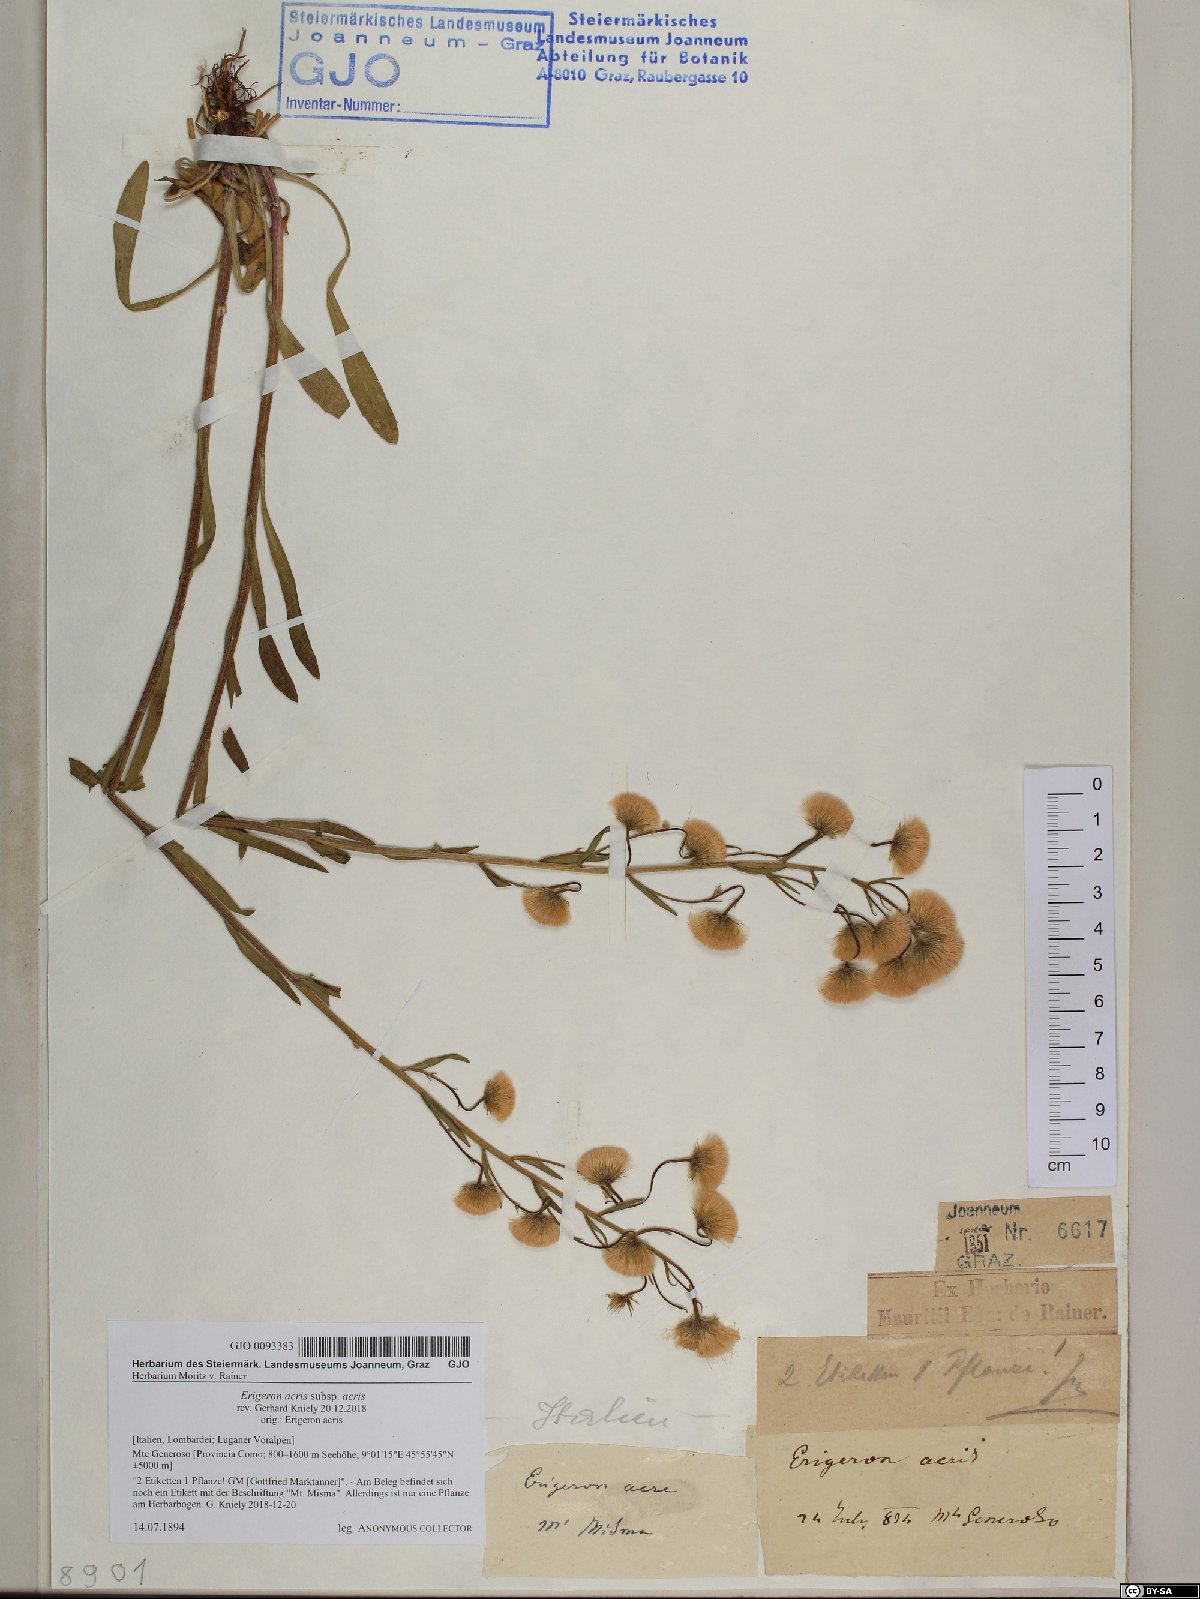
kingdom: Plantae
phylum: Tracheophyta
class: Magnoliopsida
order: Asterales
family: Asteraceae
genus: Erigeron
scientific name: Erigeron acris
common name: Blue fleabane
